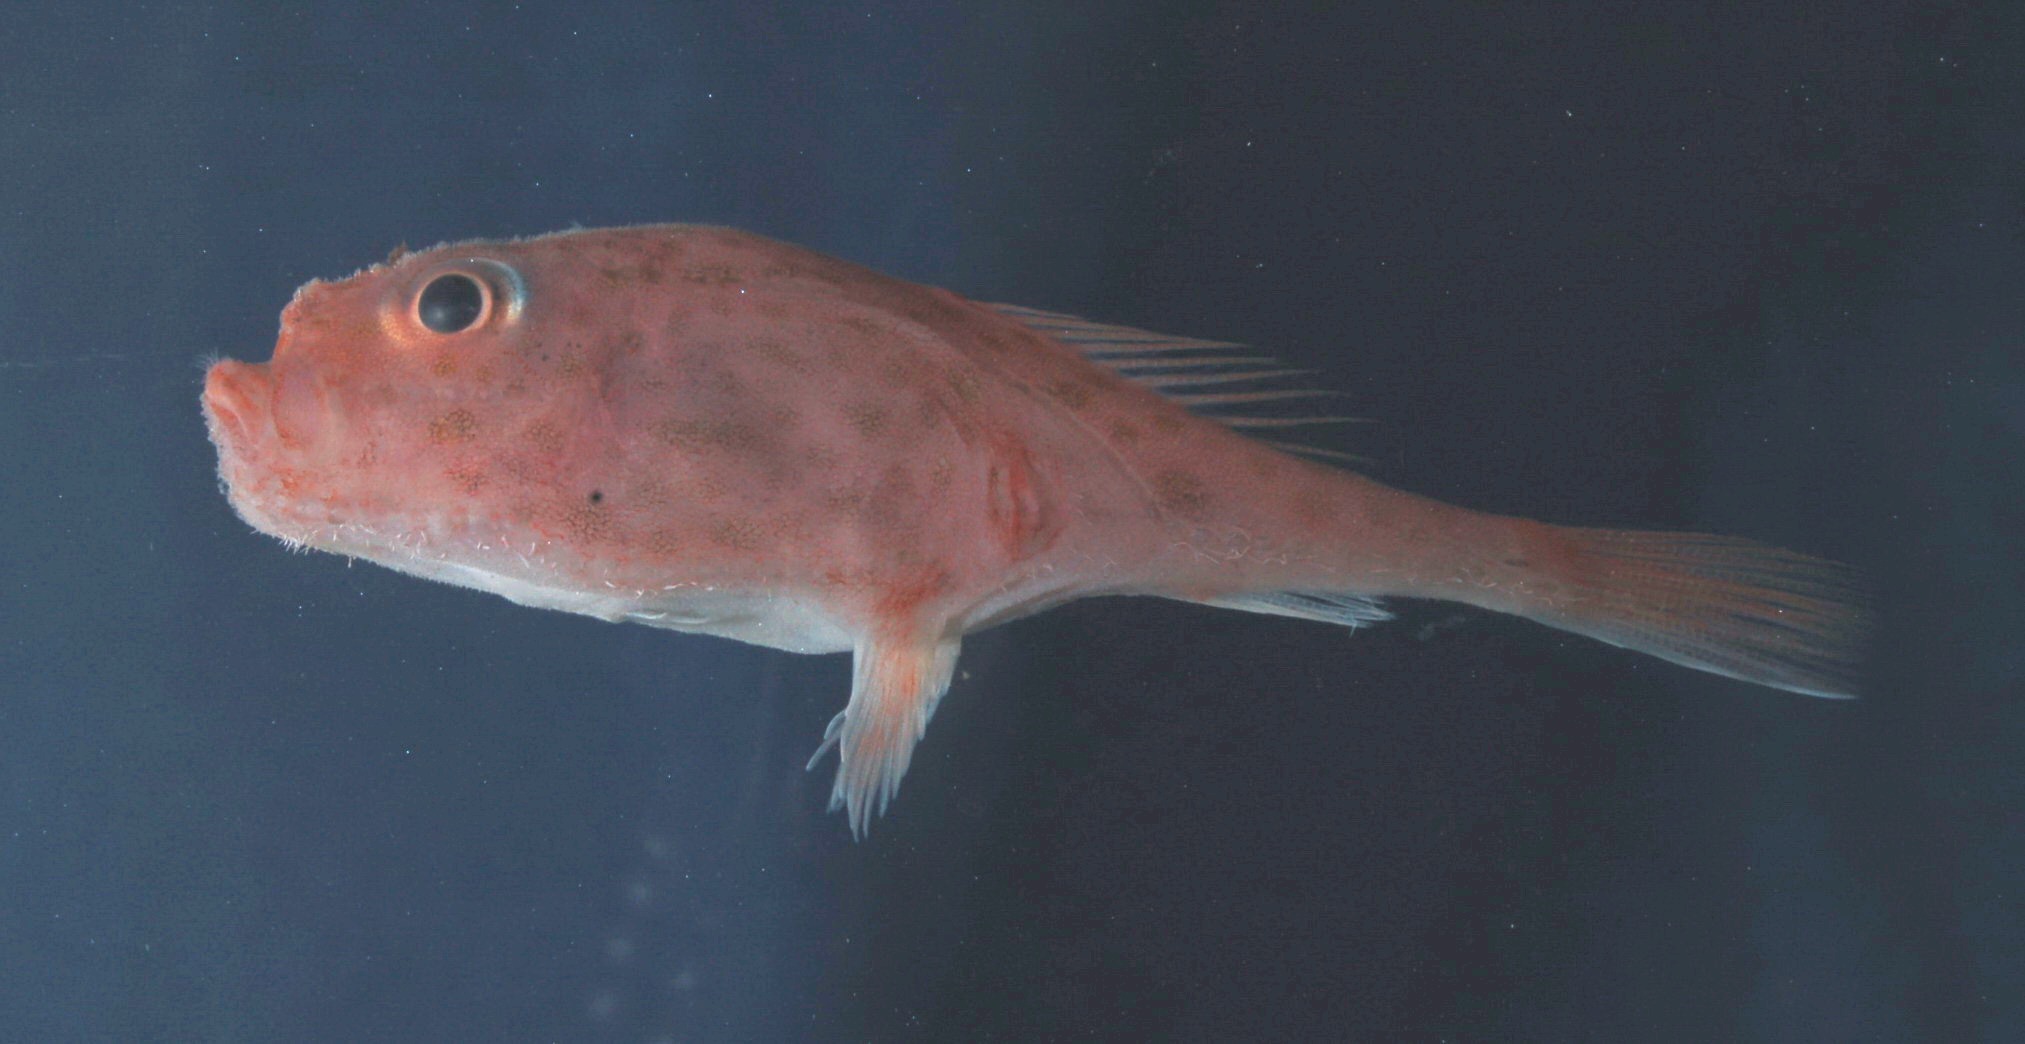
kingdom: Animalia
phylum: Chordata
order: Lophiiformes
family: Chaunacidae
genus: Chaunax
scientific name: Chaunax fimbriatus
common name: Tassled coffinfish
